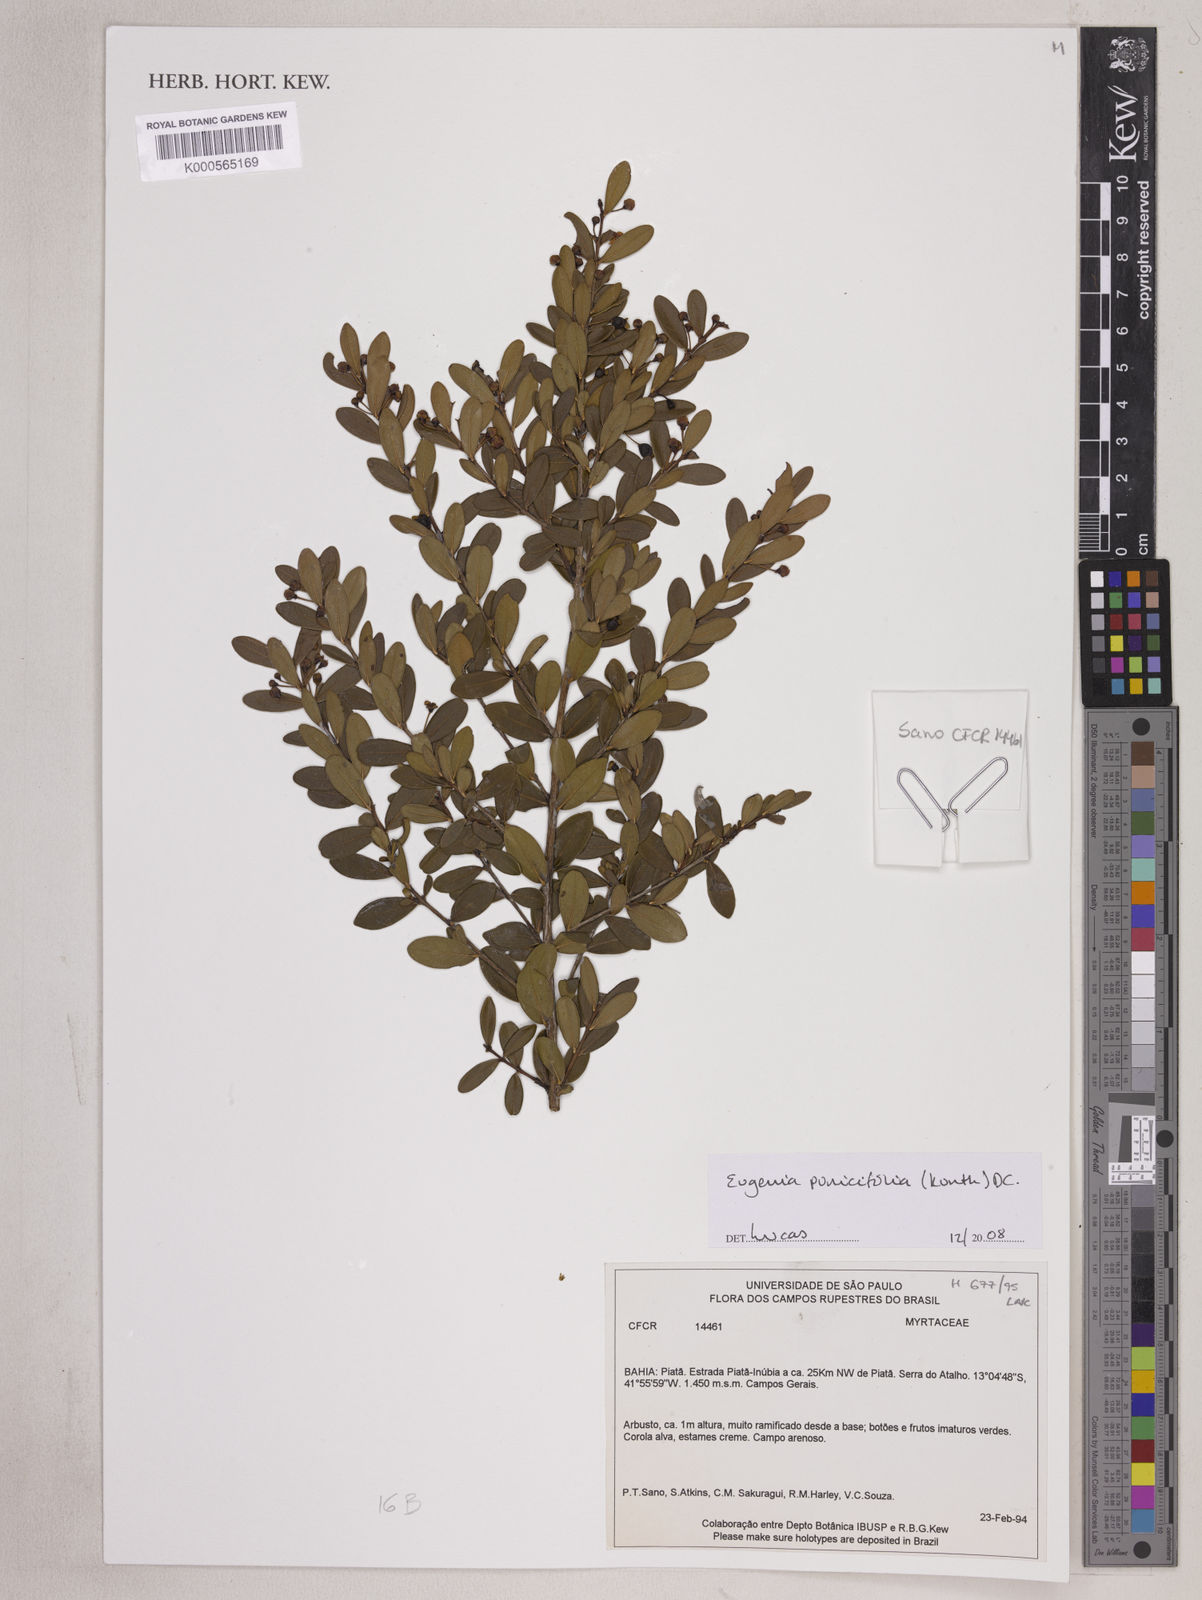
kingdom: Plantae
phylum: Tracheophyta
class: Magnoliopsida
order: Myrtales
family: Myrtaceae
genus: Eugenia
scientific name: Eugenia punicifolia
